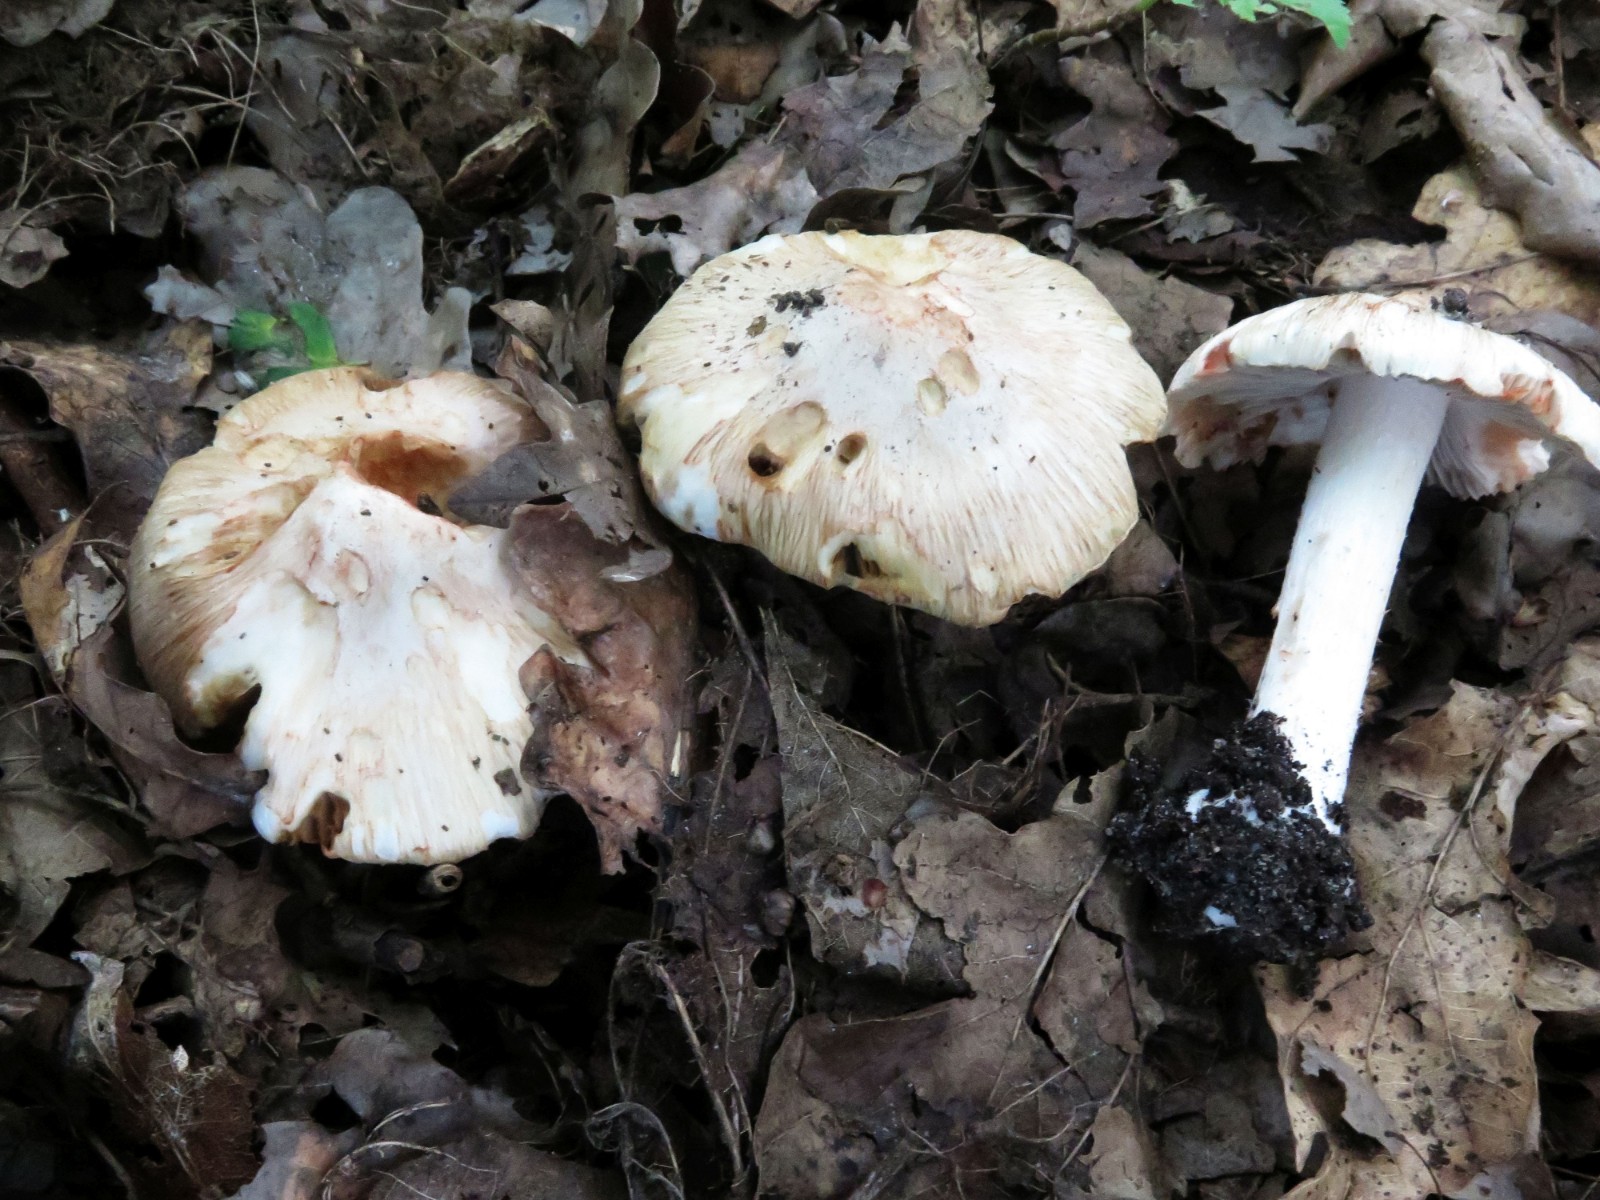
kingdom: Fungi
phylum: Basidiomycota
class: Agaricomycetes
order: Agaricales
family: Inocybaceae
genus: Inosperma
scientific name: Inosperma erubescens
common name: giftig trævlhat
